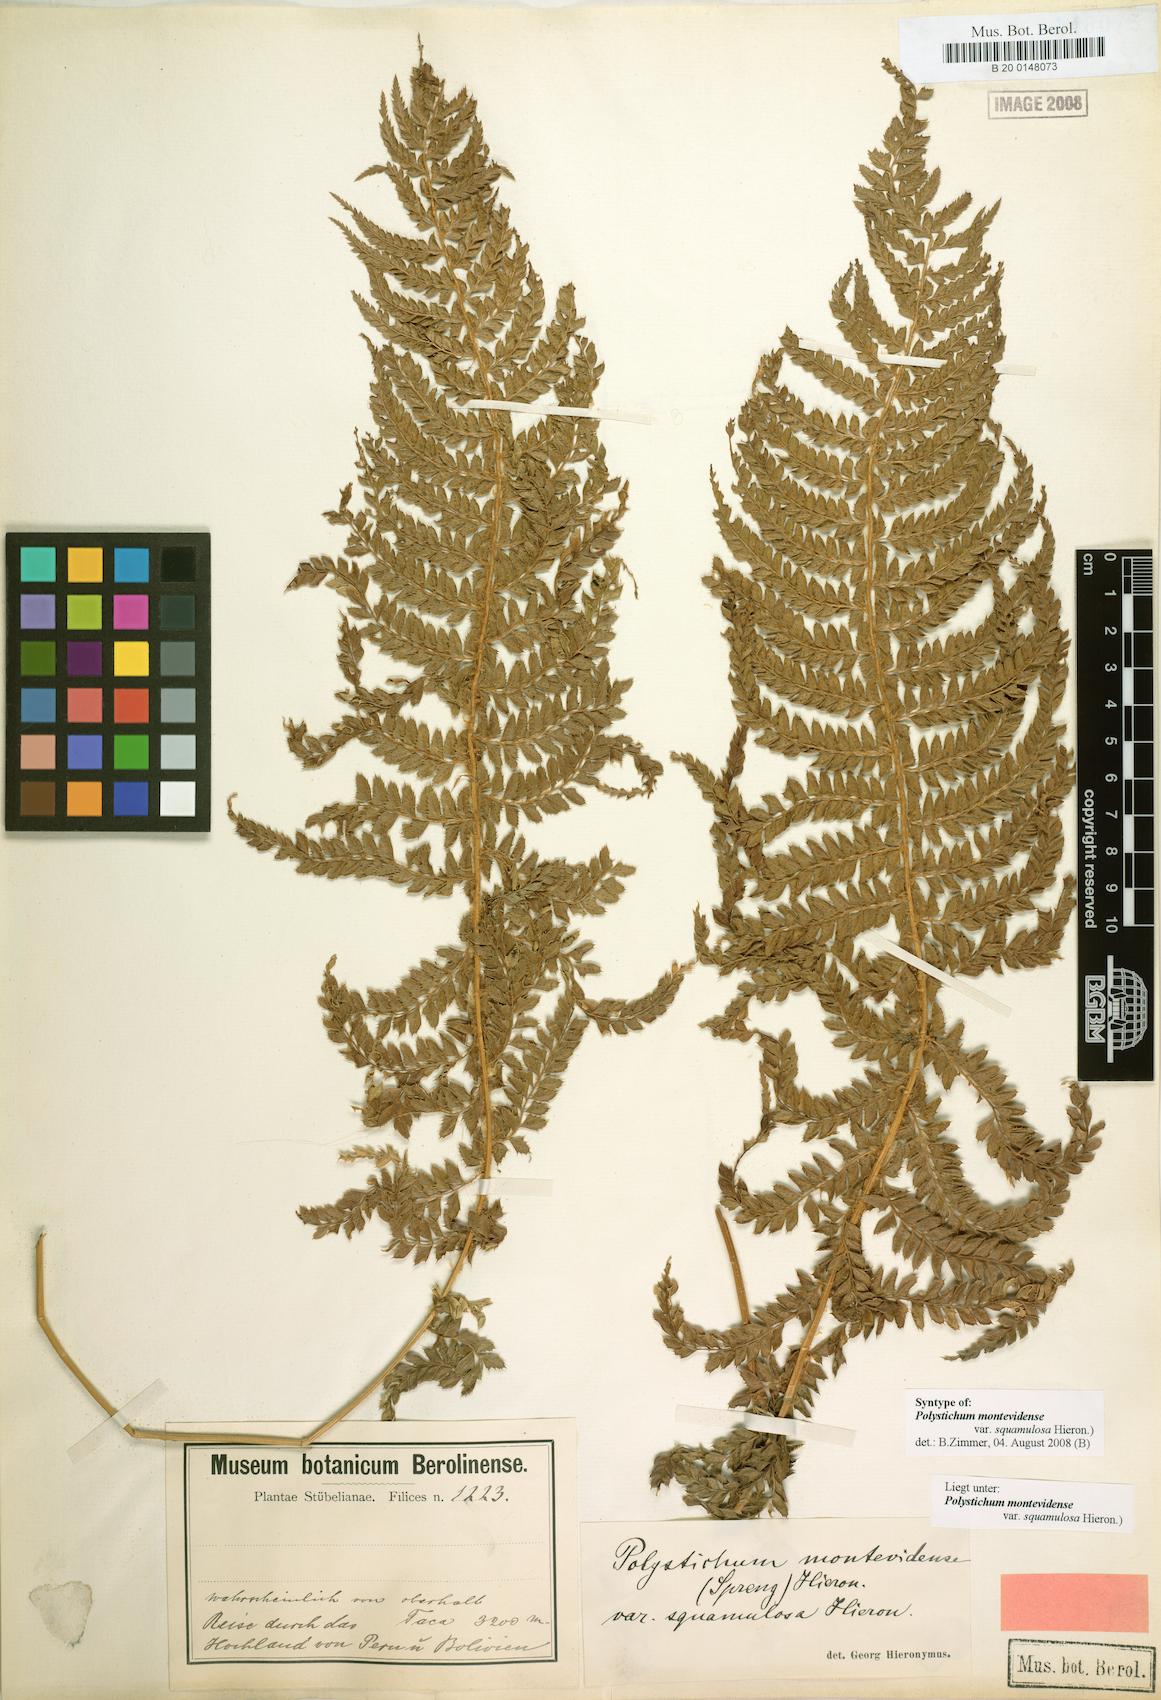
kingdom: Plantae
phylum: Tracheophyta
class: Polypodiopsida
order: Polypodiales
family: Dryopteridaceae
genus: Polystichum
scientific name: Polystichum montevidense
